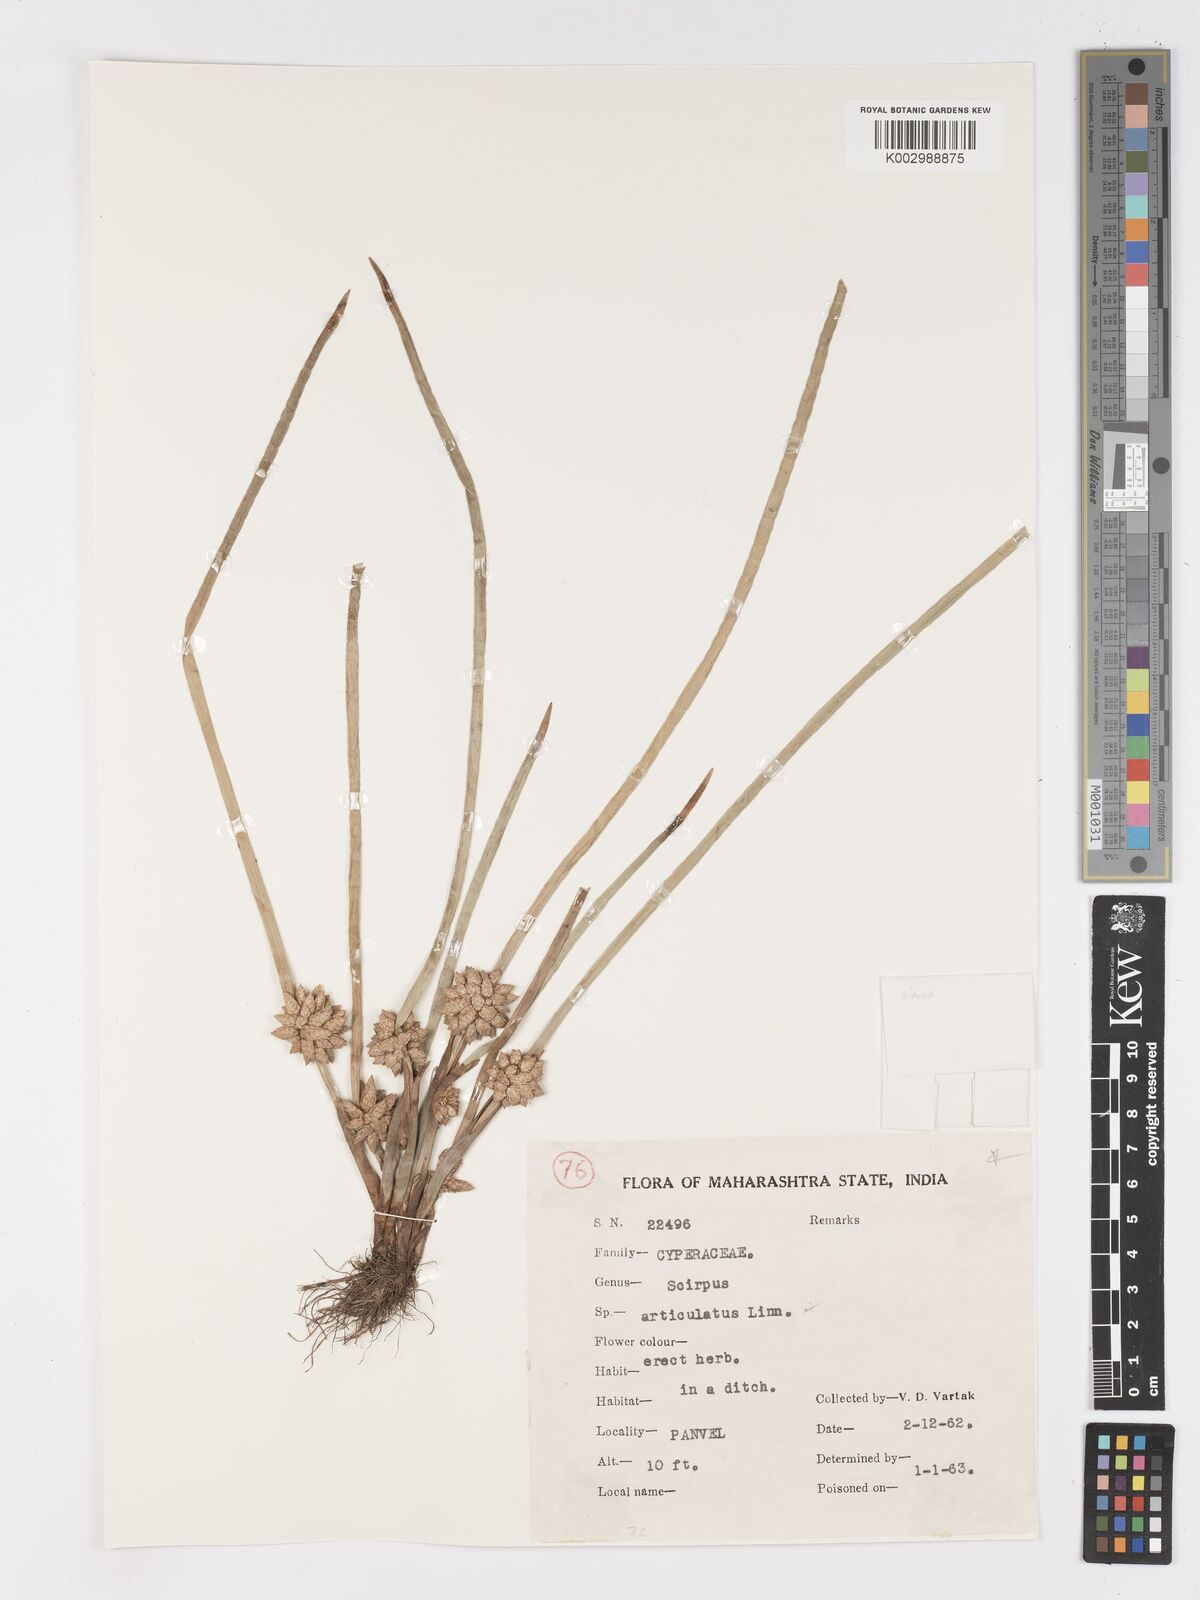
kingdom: Plantae
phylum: Tracheophyta
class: Liliopsida
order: Poales
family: Cyperaceae
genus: Schoenoplectiella
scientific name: Schoenoplectiella praelongata
